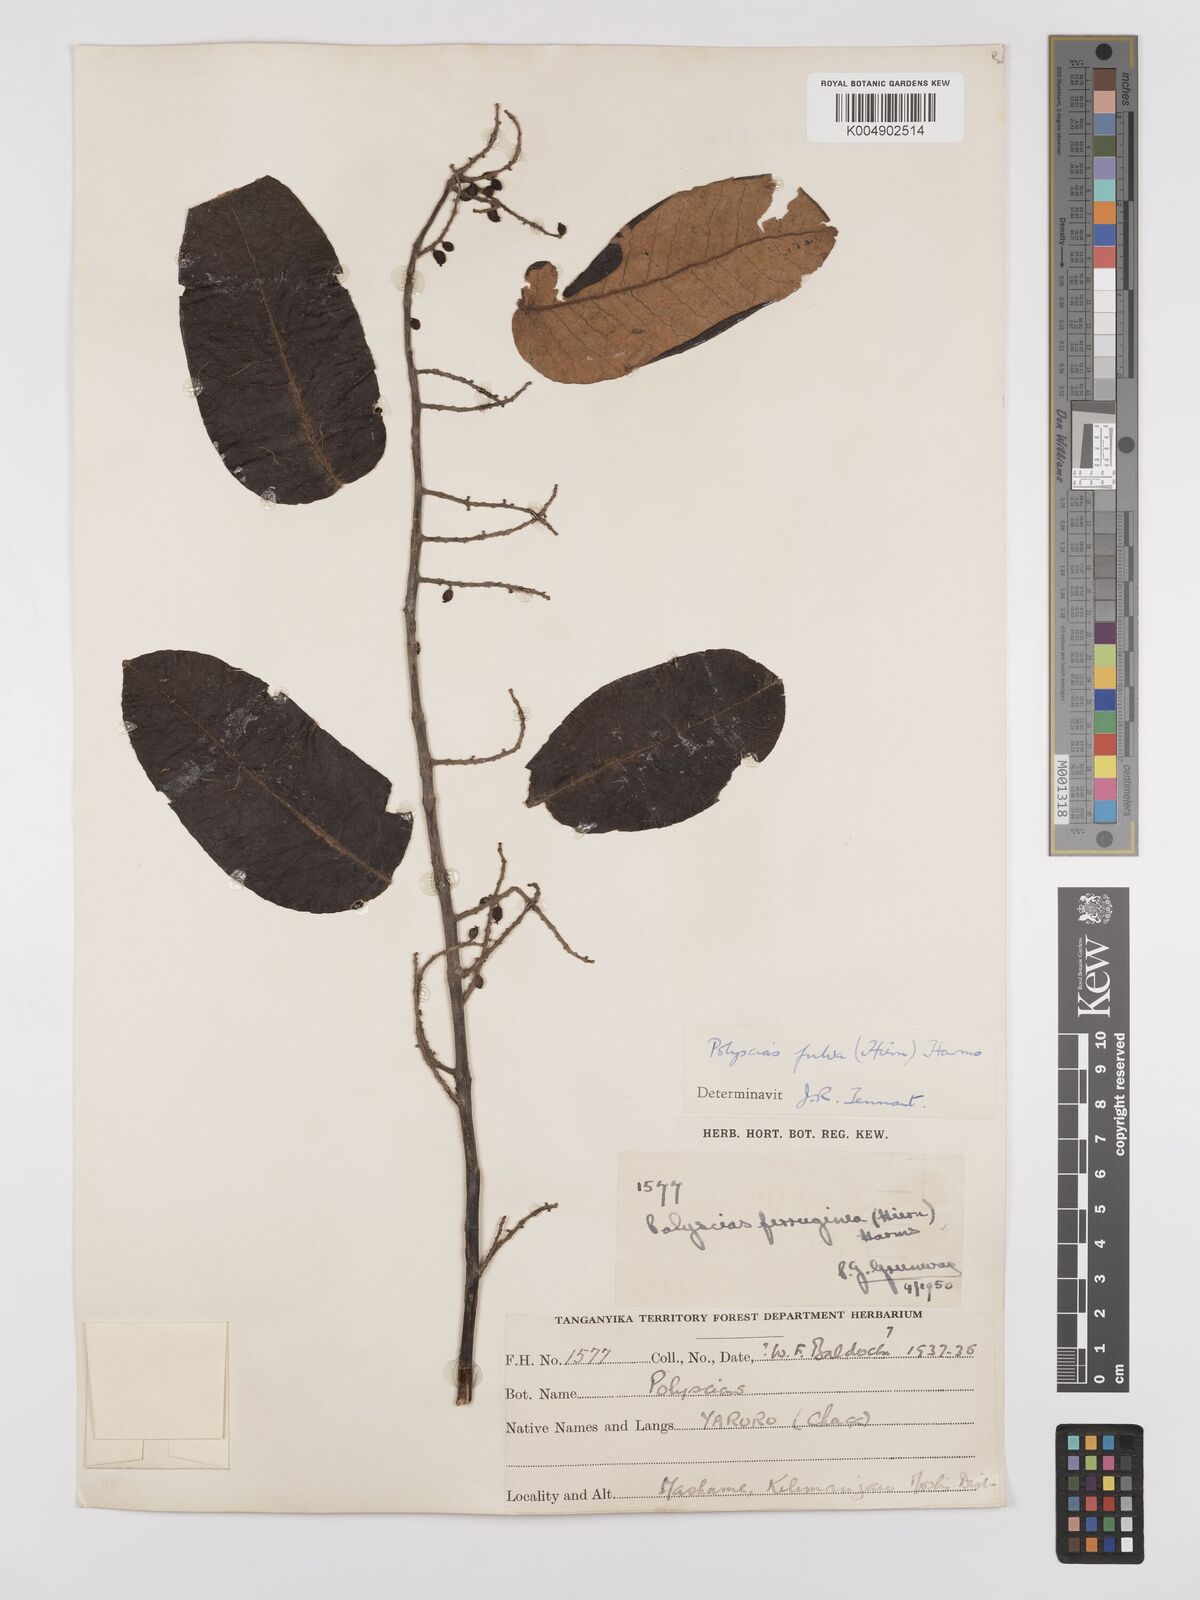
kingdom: Plantae
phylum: Tracheophyta
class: Magnoliopsida
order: Apiales
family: Araliaceae
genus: Polyscias
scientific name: Polyscias fulva
